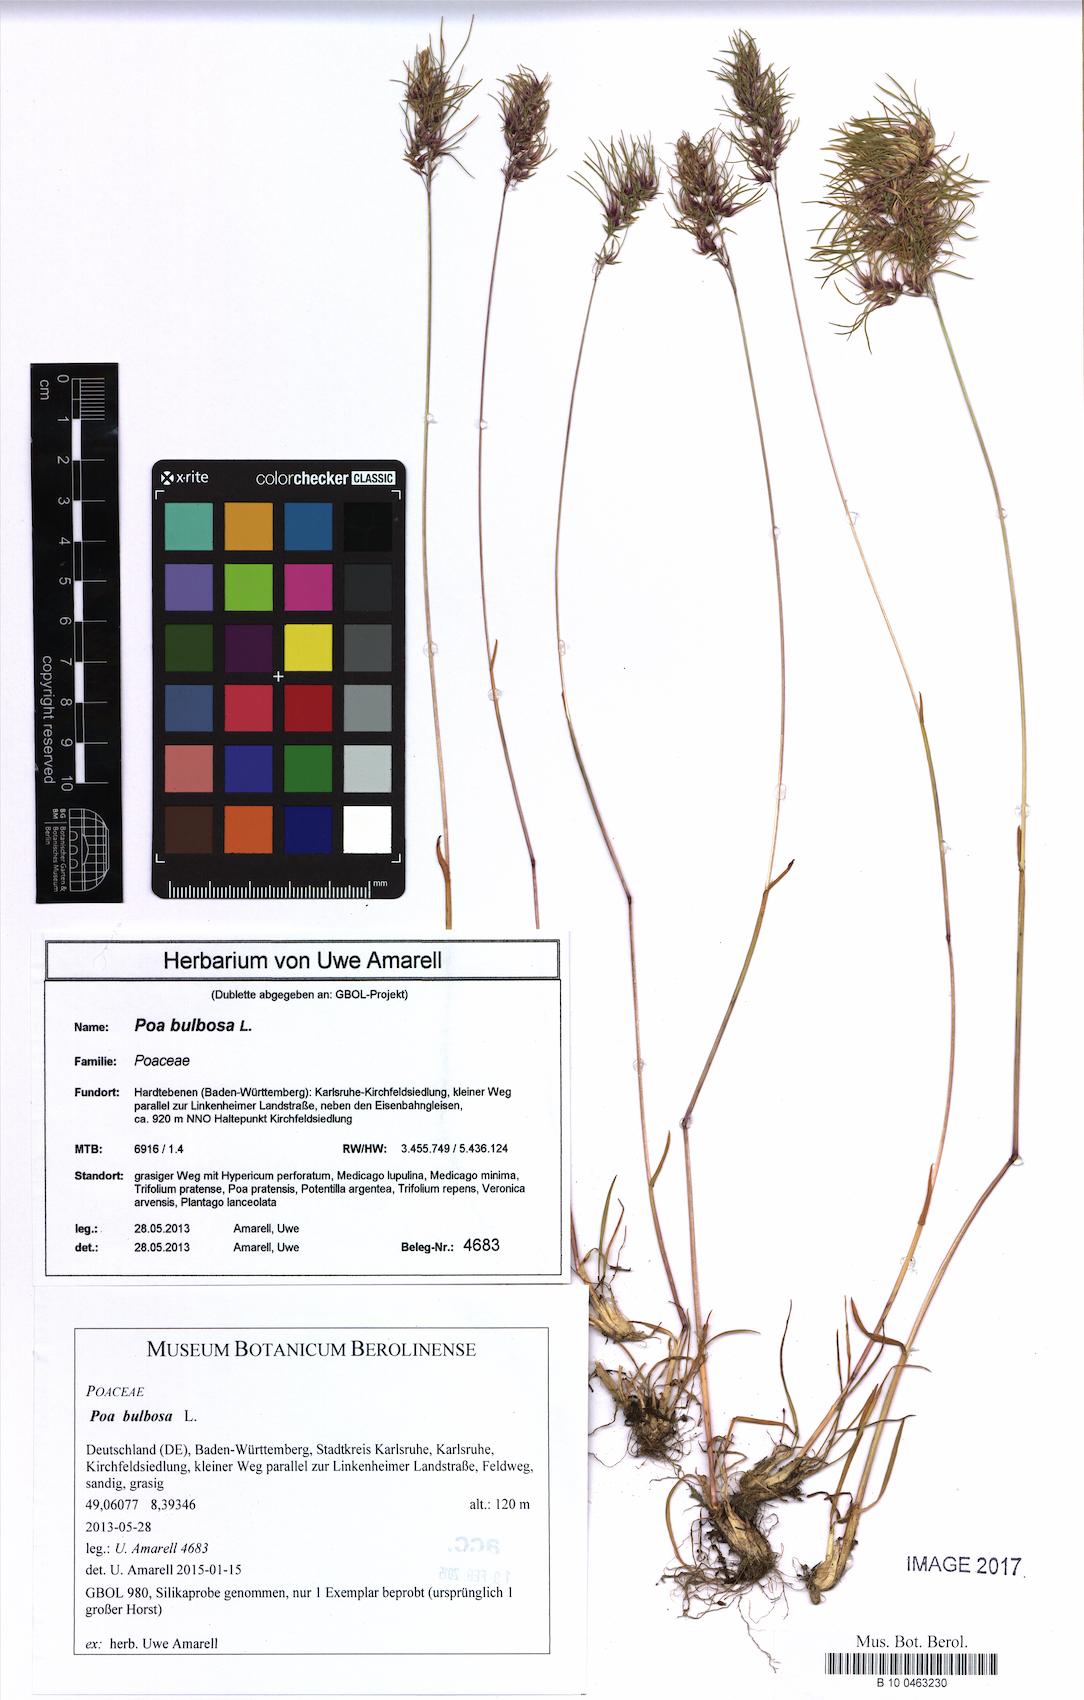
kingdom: Plantae
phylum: Tracheophyta
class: Liliopsida
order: Poales
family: Poaceae
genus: Poa
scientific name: Poa bulbosa
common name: Bulbous bluegrass
